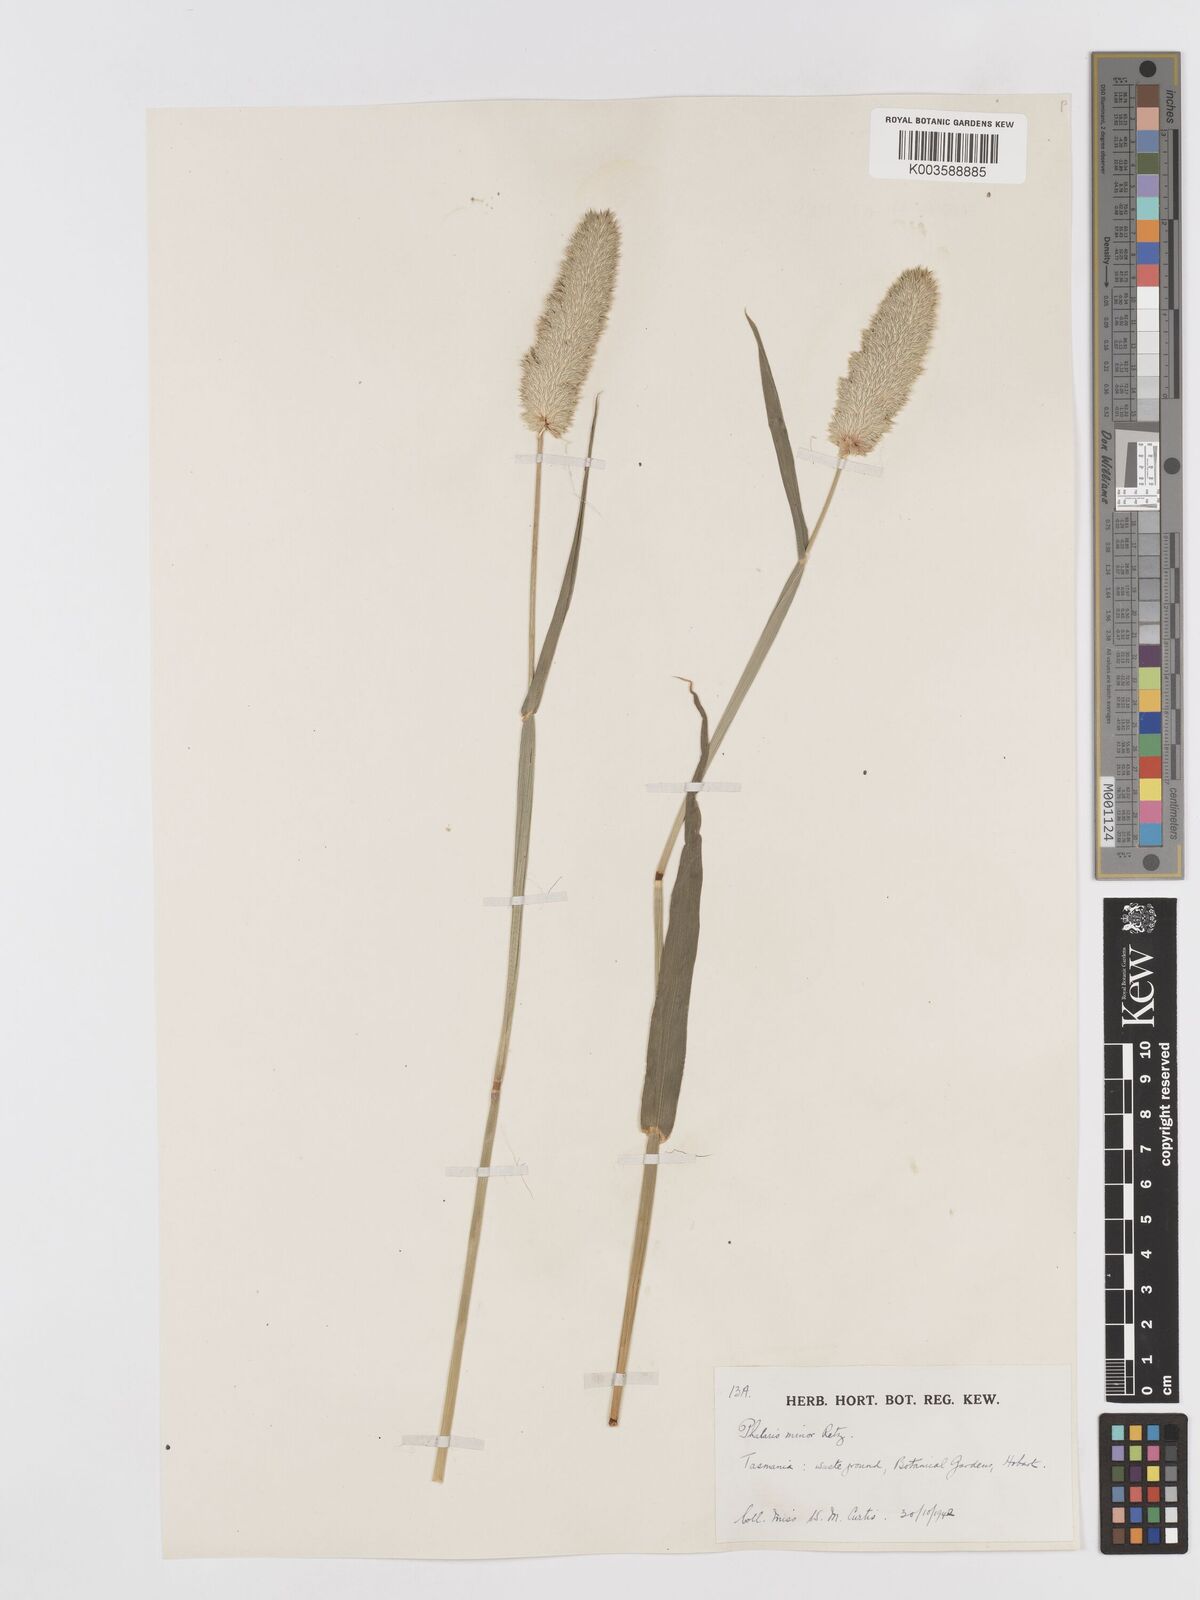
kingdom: Plantae
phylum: Tracheophyta
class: Liliopsida
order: Poales
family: Poaceae
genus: Phalaris
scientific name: Phalaris minor
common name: Littleseed canarygrass
